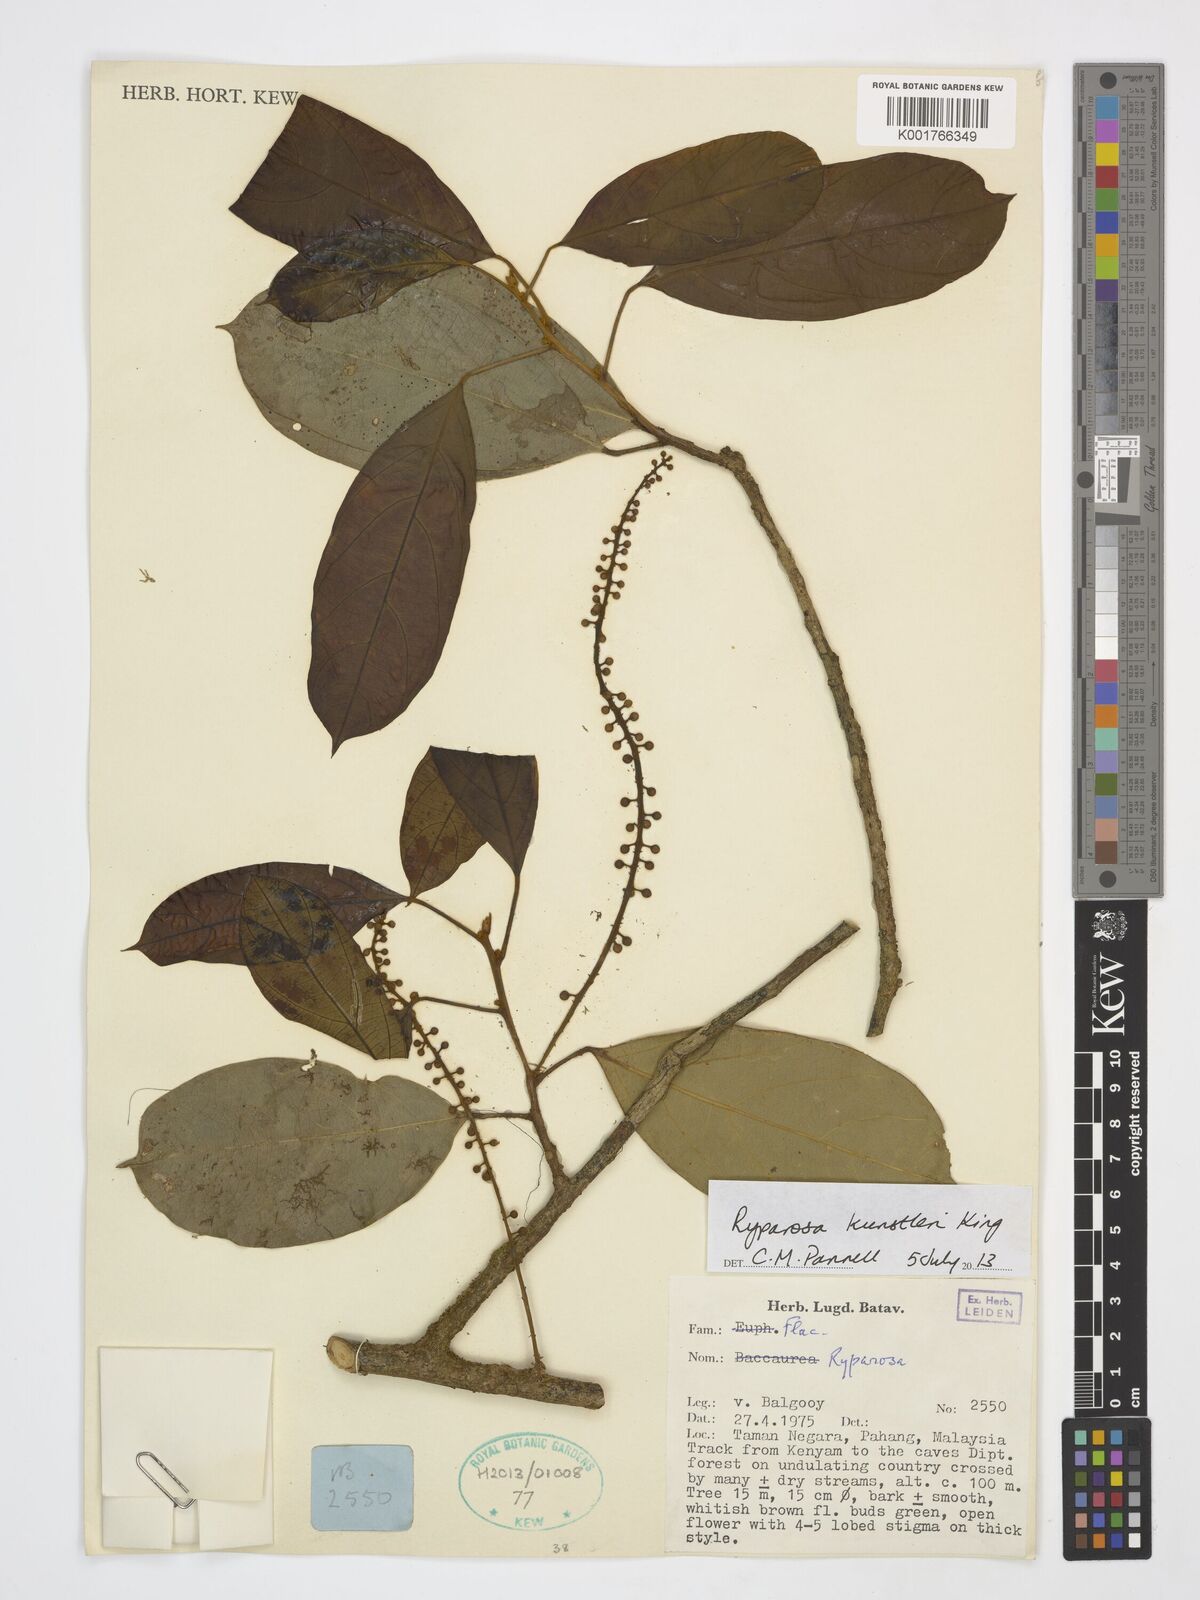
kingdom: Plantae
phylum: Tracheophyta
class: Magnoliopsida
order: Malpighiales
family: Achariaceae
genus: Ryparosa
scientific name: Ryparosa kunstleri
